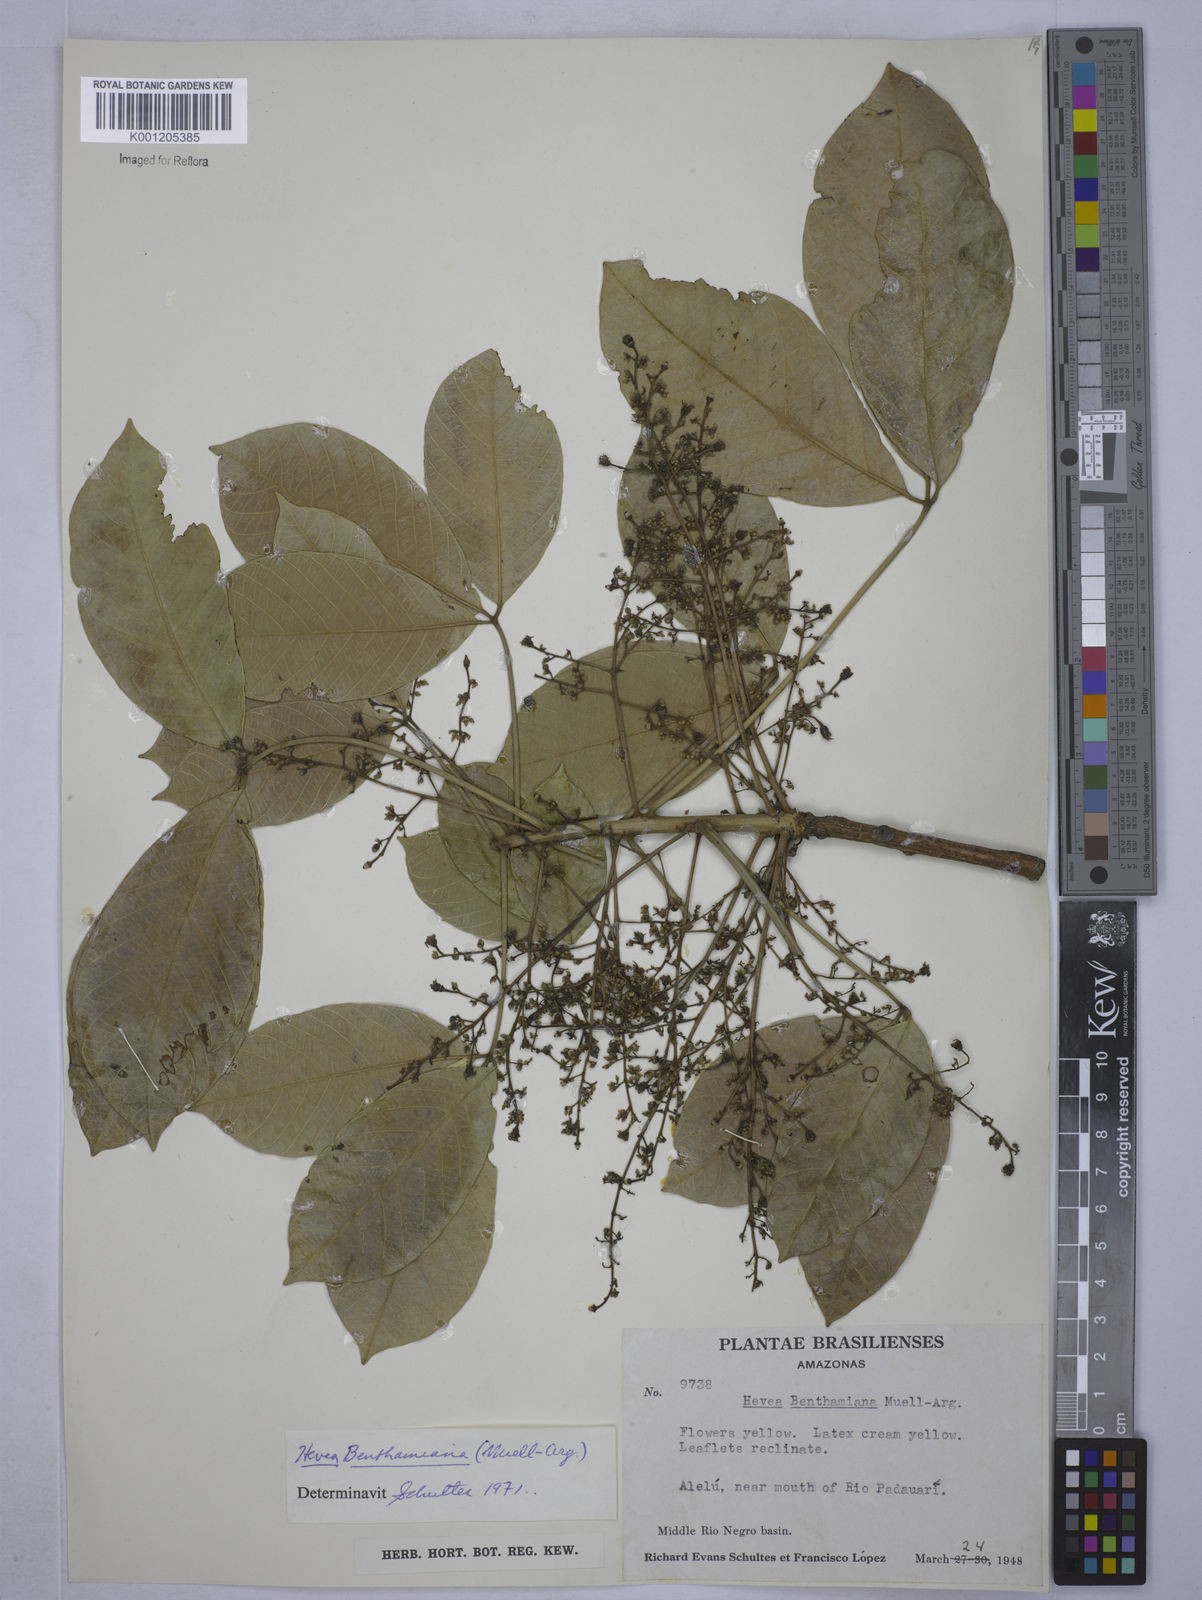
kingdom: Plantae
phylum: Tracheophyta
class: Magnoliopsida
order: Malpighiales
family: Euphorbiaceae
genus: Hevea
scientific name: Hevea
